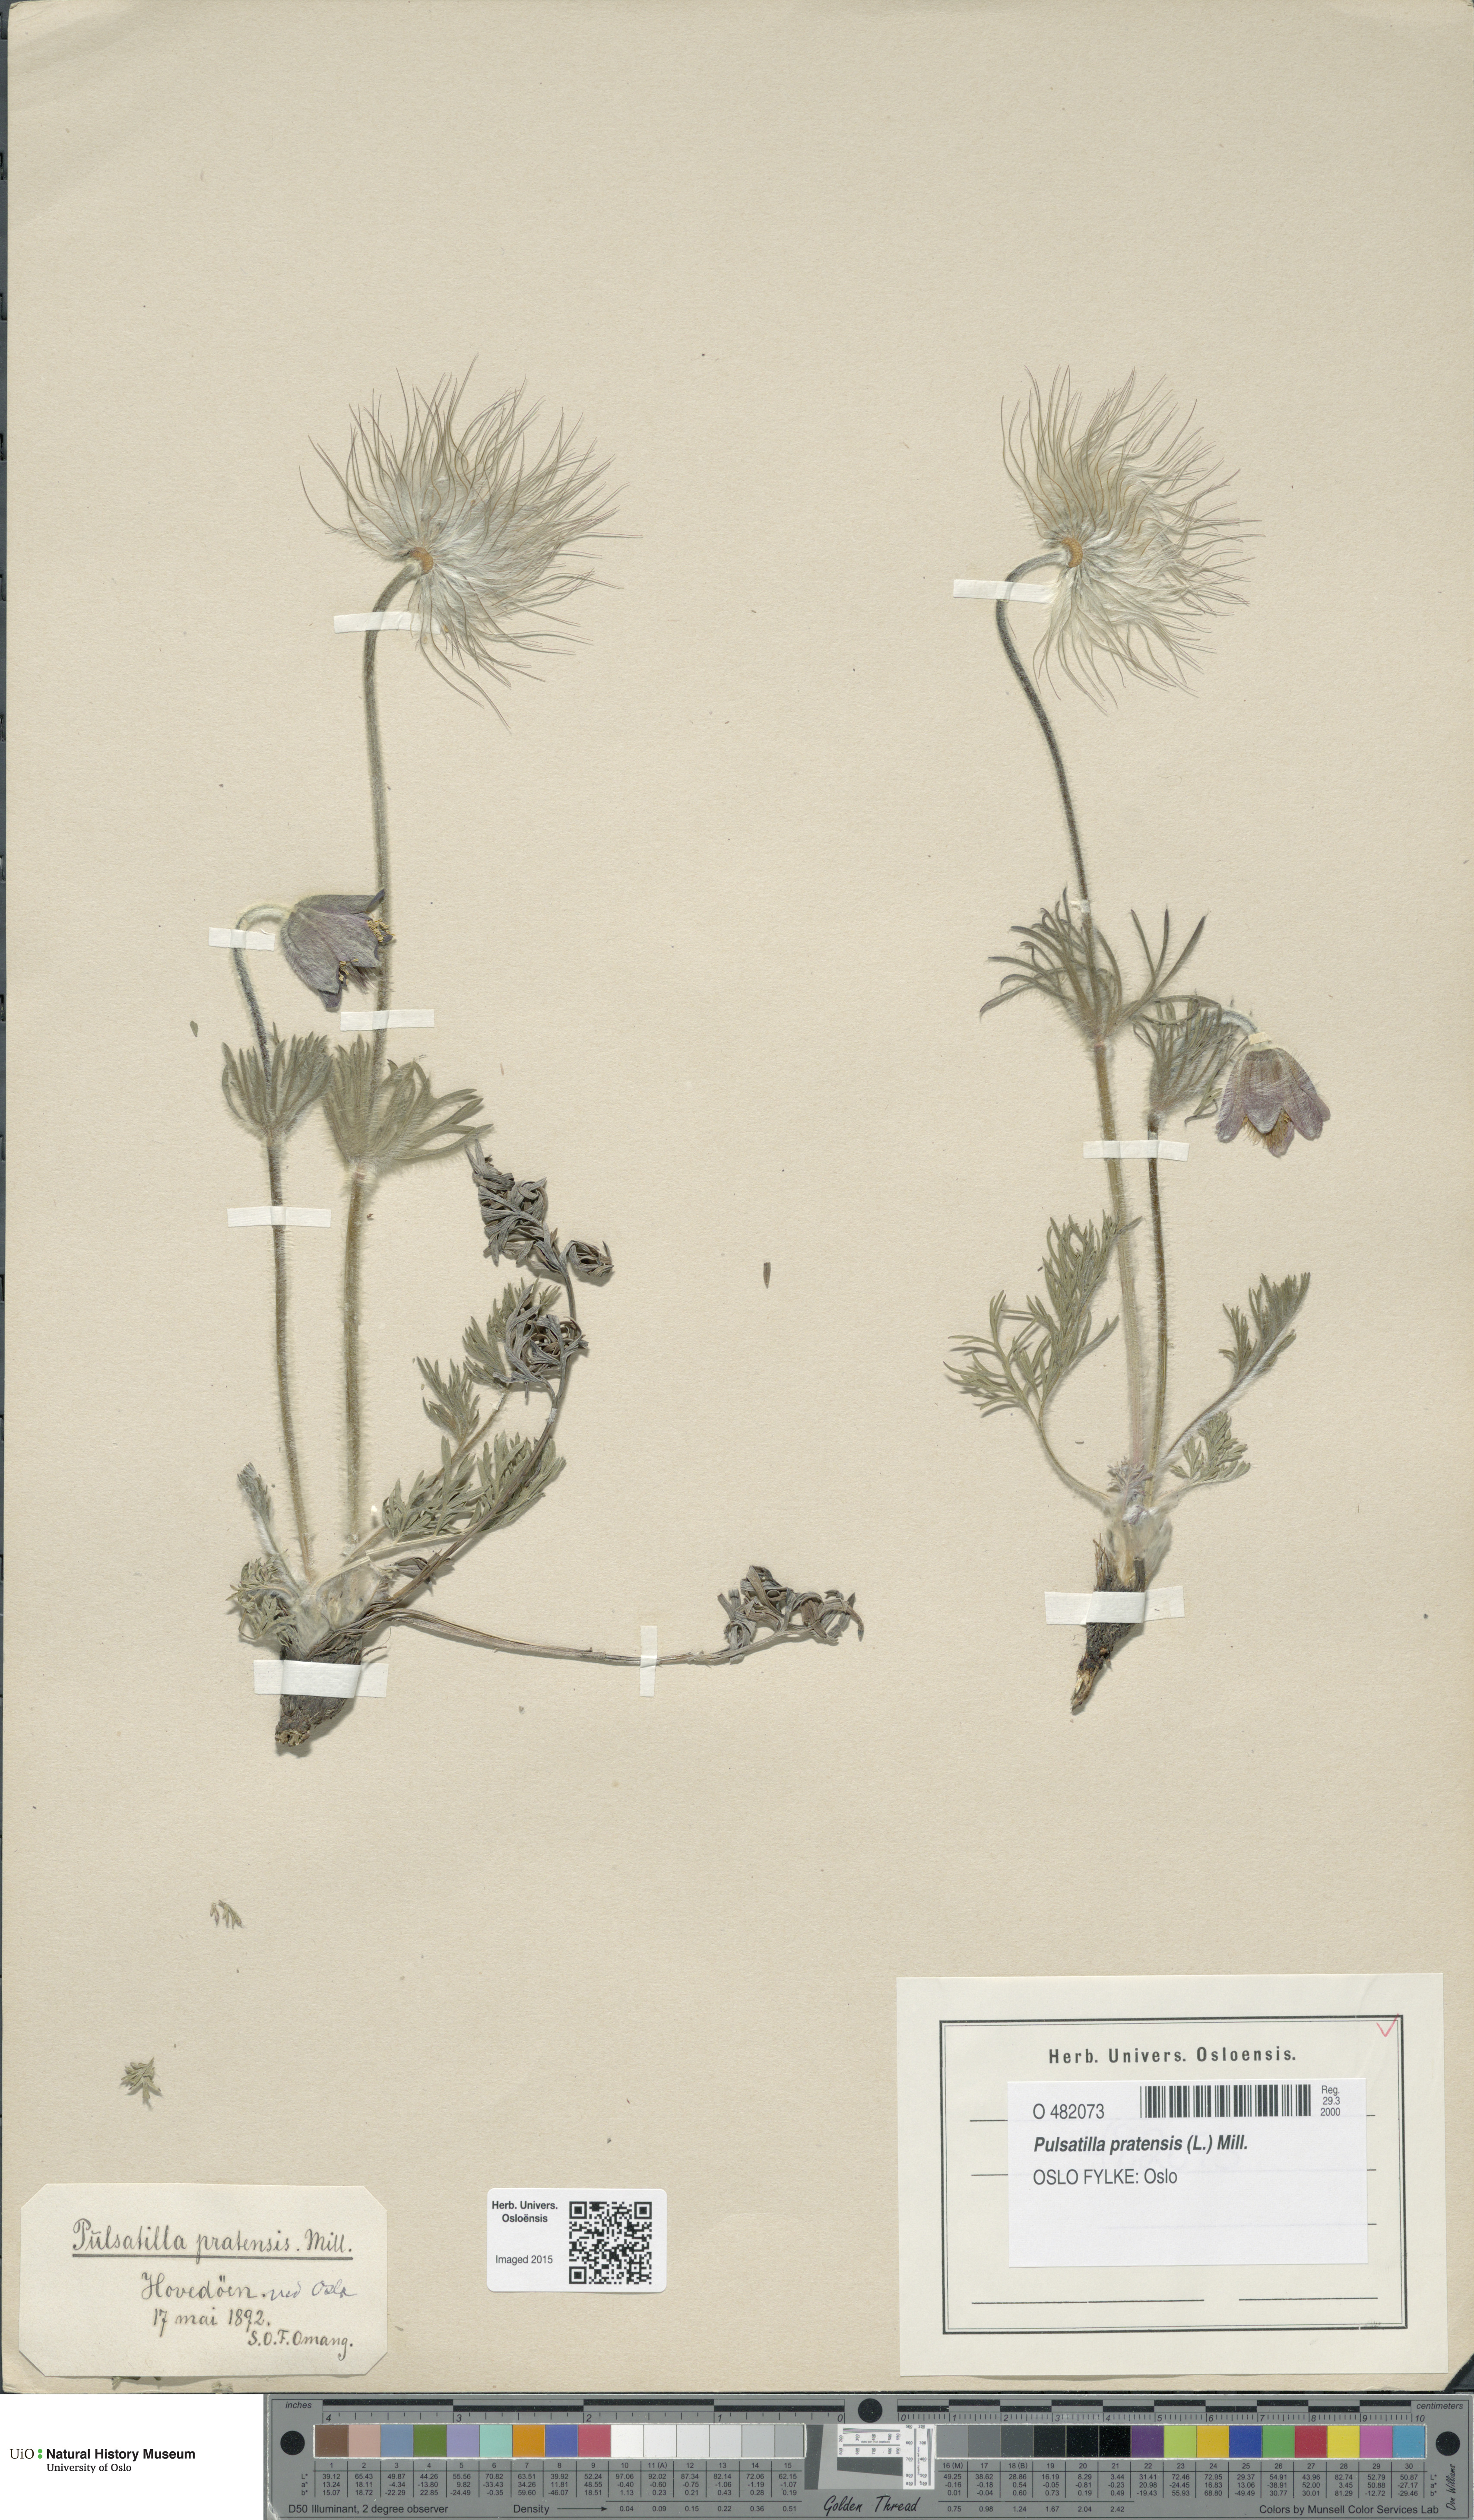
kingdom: Plantae
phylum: Tracheophyta
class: Magnoliopsida
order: Ranunculales
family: Ranunculaceae
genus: Pulsatilla
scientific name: Pulsatilla pratensis
